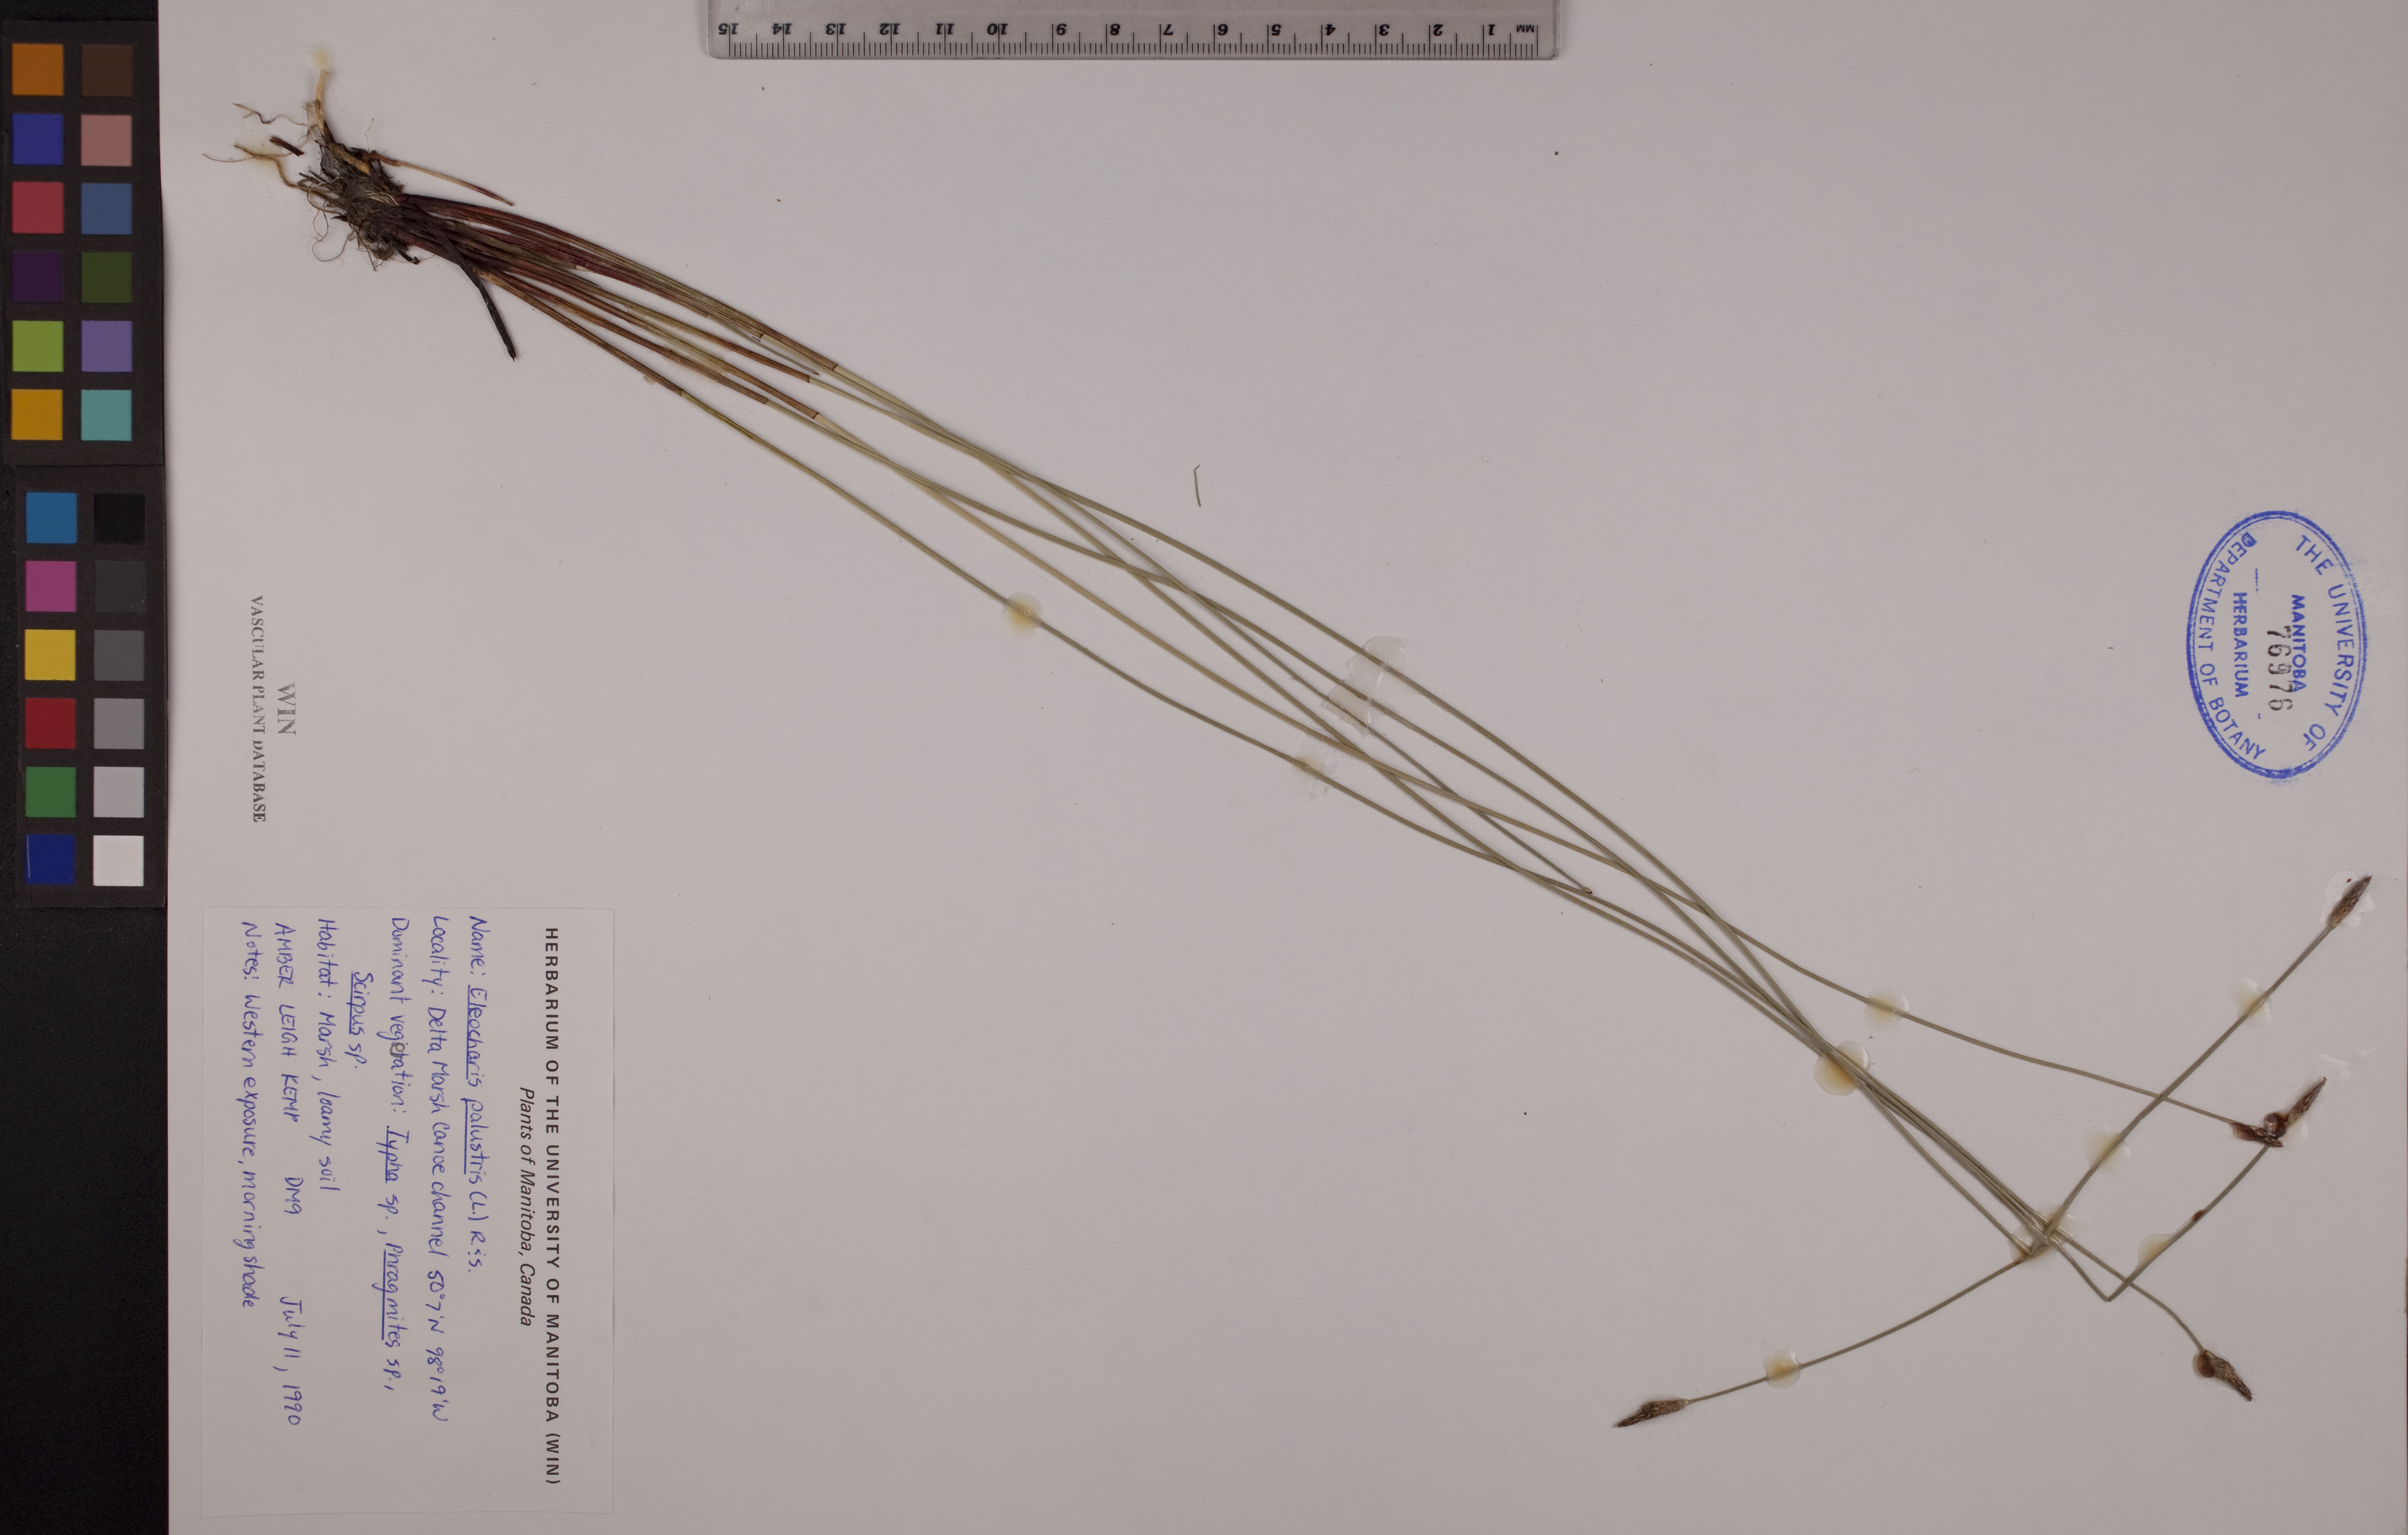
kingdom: Plantae
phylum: Tracheophyta
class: Liliopsida
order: Poales
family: Cyperaceae
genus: Eleocharis
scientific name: Eleocharis palustris
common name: Common spike-rush
